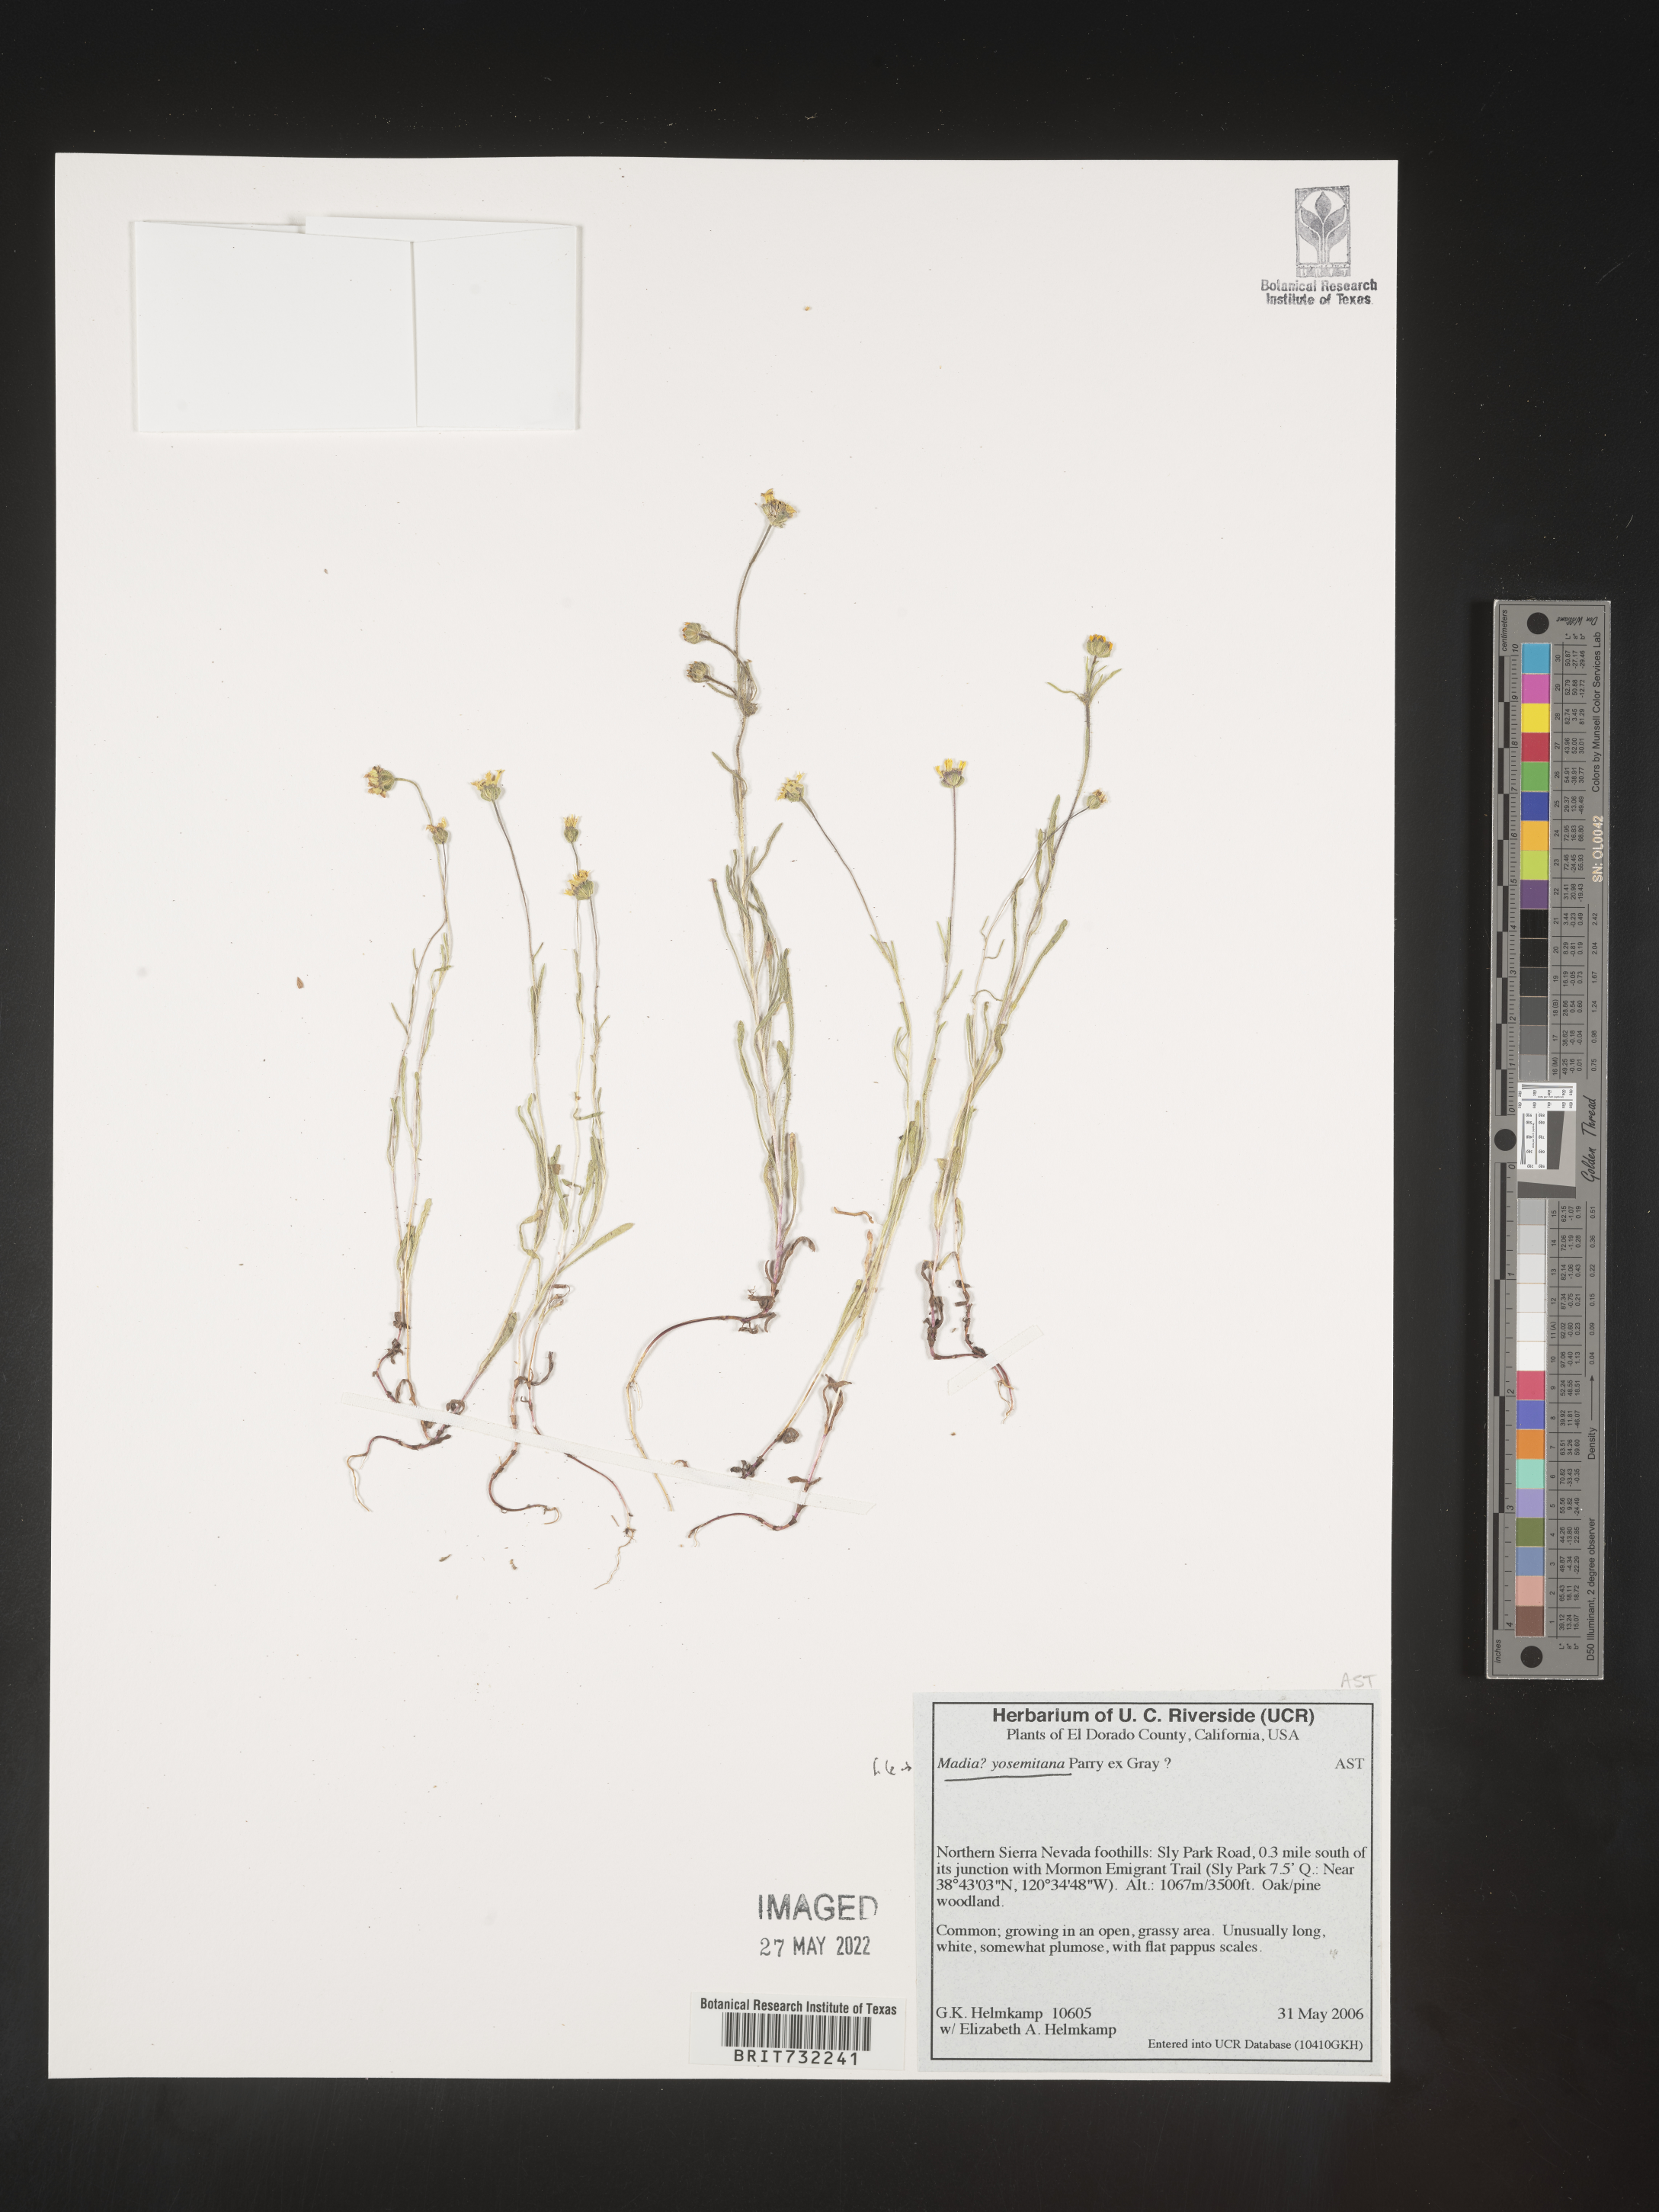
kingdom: Plantae
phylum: Tracheophyta
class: Magnoliopsida
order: Asterales
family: Asteraceae
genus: Madia
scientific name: Madia
